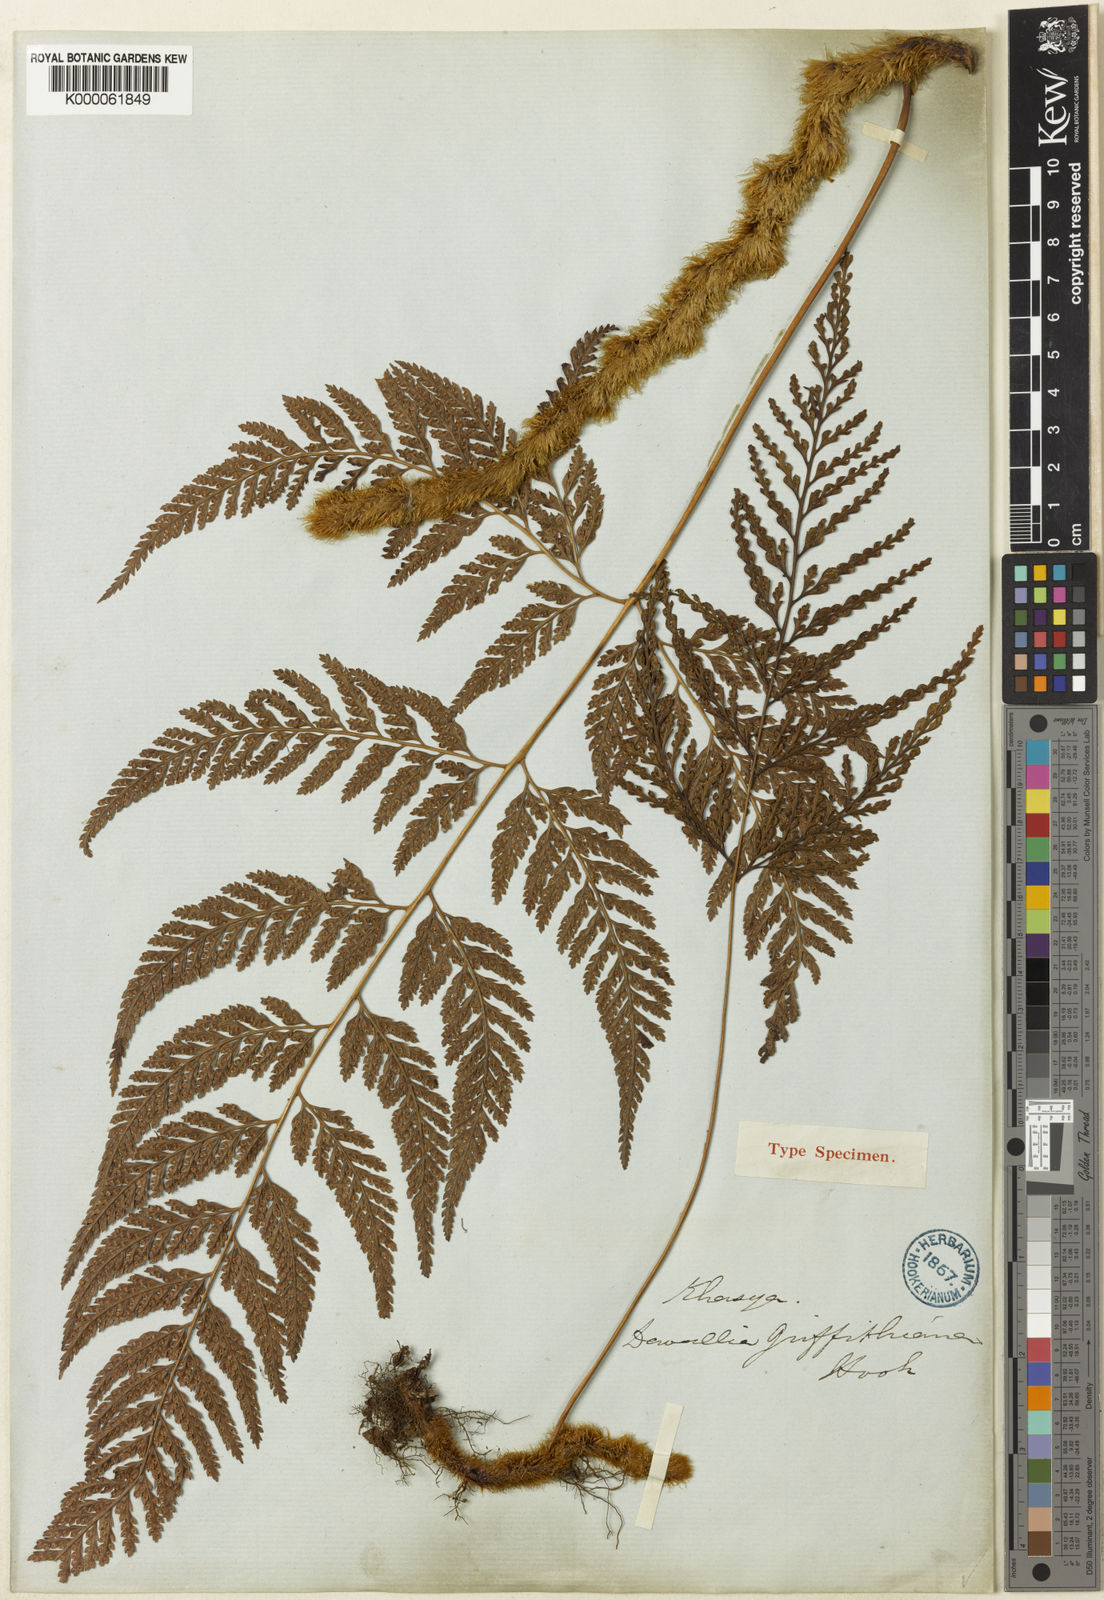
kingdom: Plantae
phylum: Tracheophyta
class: Polypodiopsida
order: Polypodiales
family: Davalliaceae
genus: Davallia
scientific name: Davallia griffithiana
